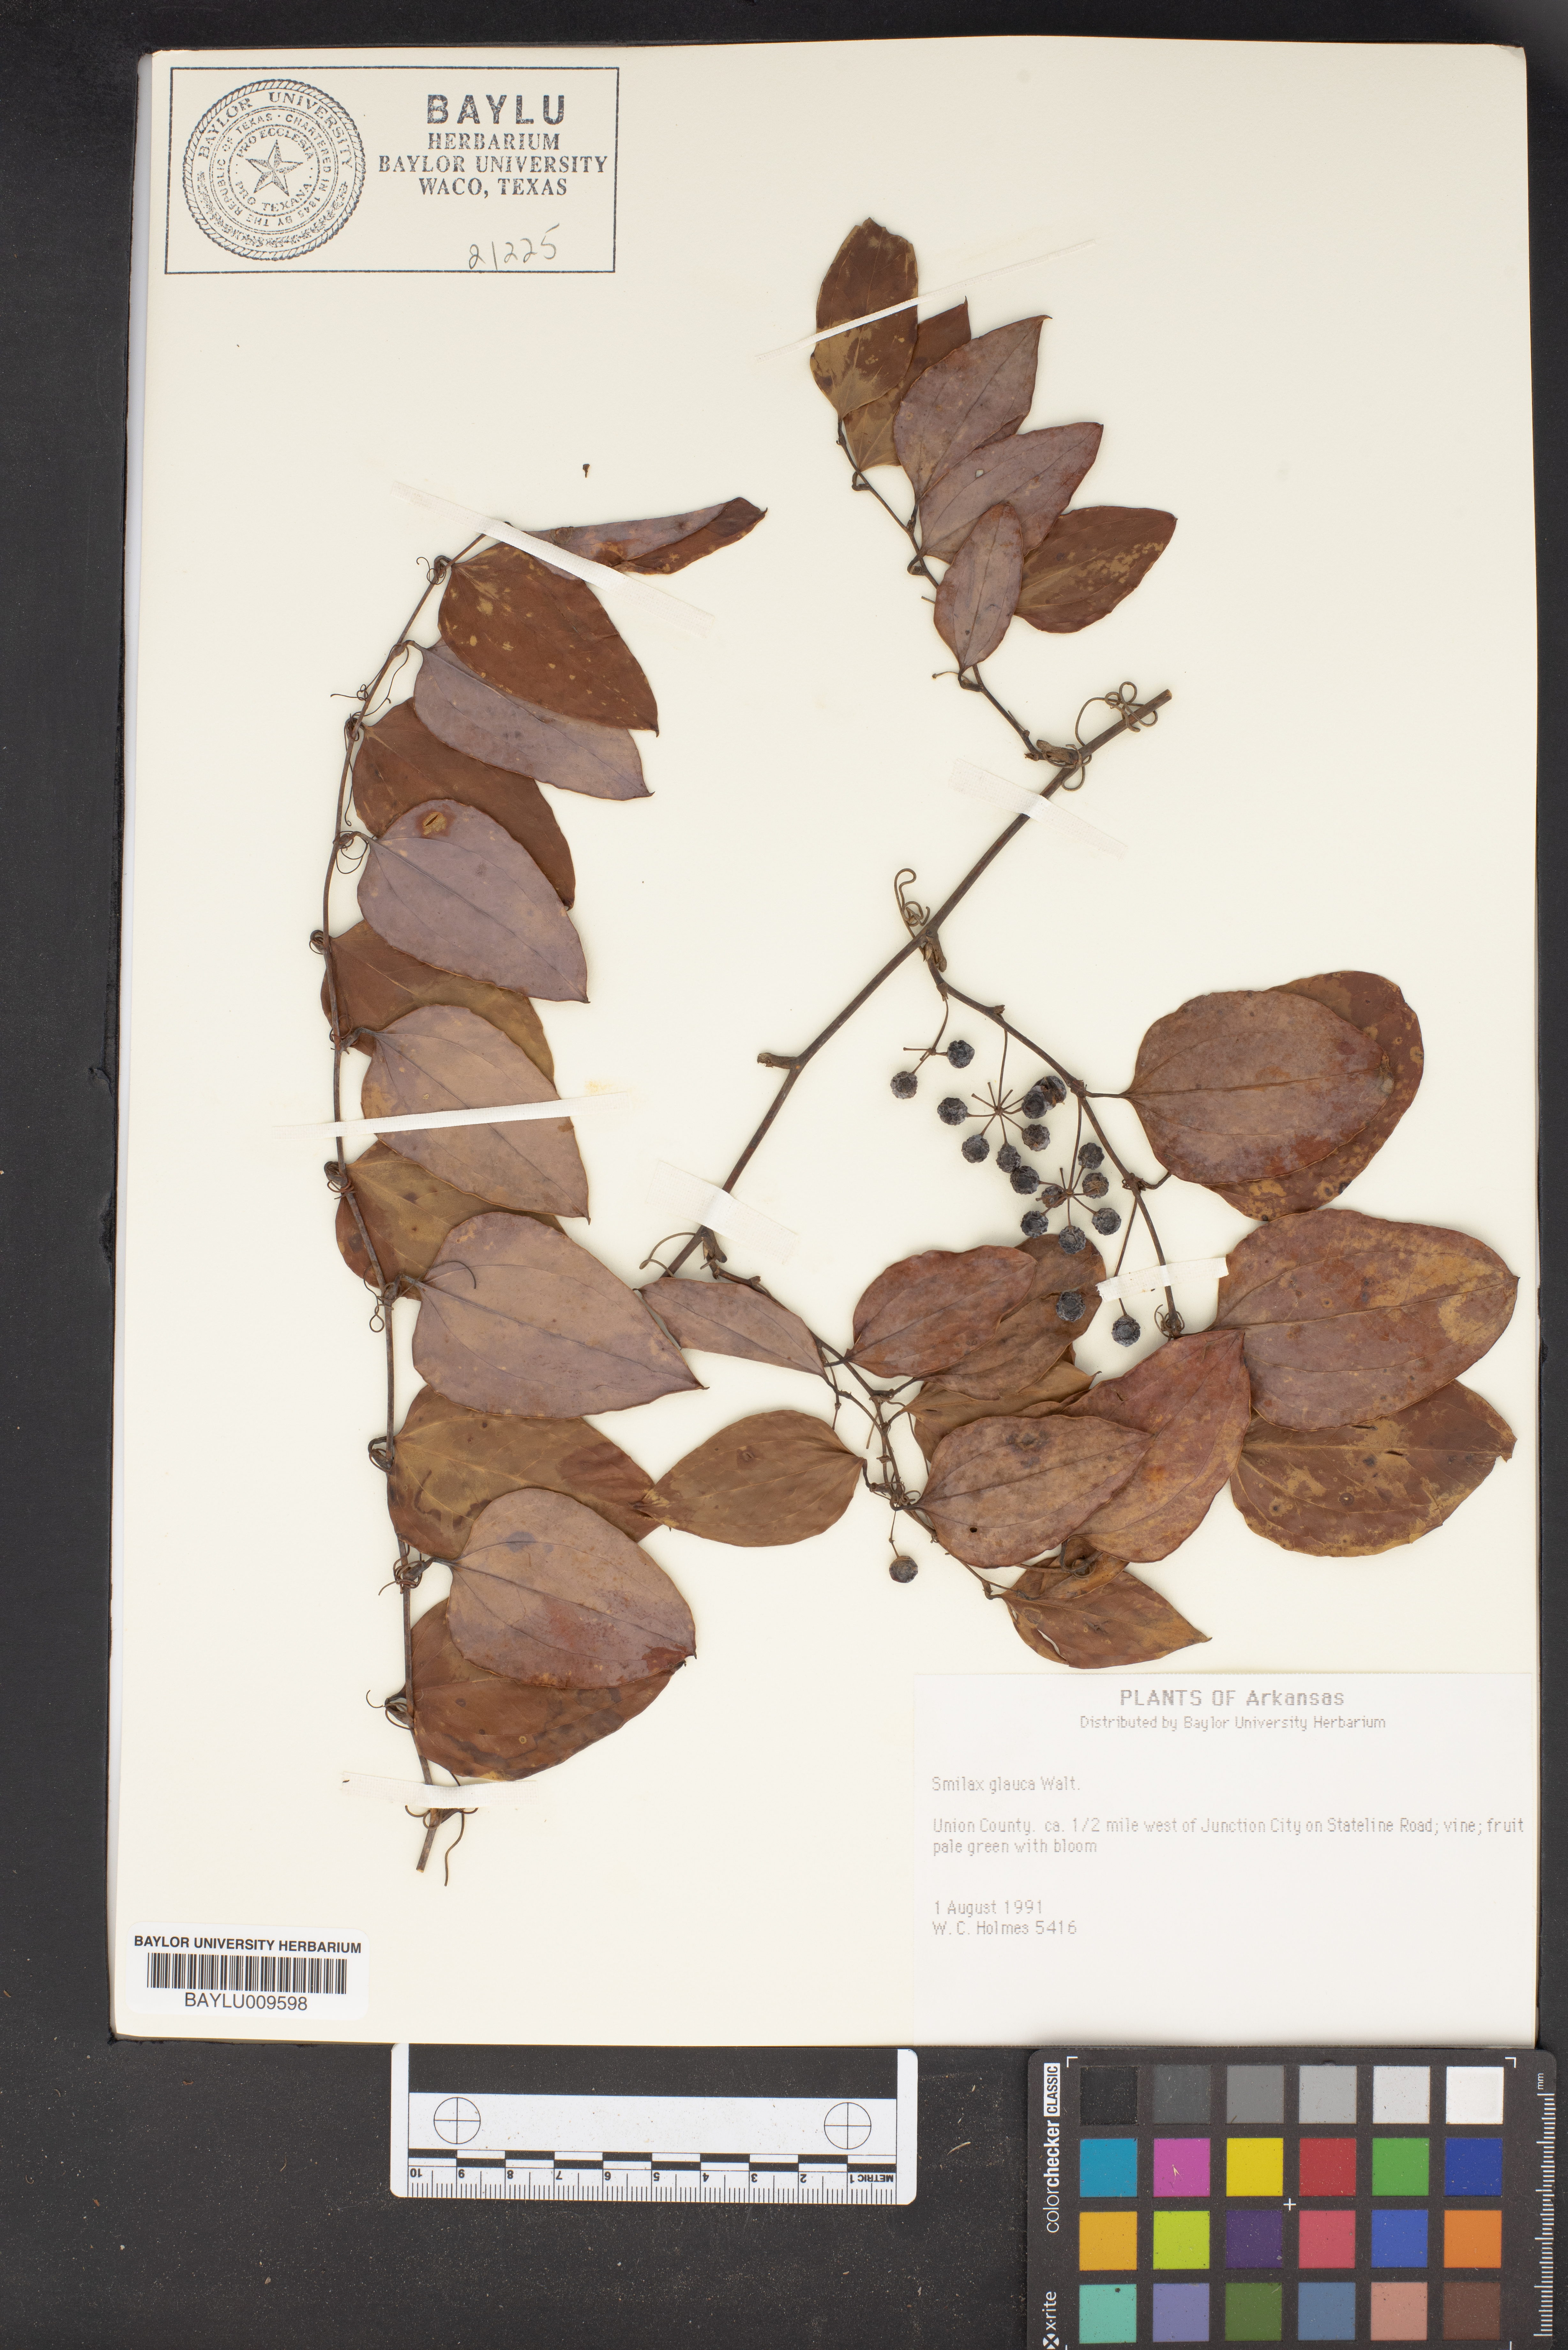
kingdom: Plantae
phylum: Tracheophyta
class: Liliopsida
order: Liliales
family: Smilacaceae
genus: Smilax
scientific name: Smilax glauca
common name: Cat greenbrier
